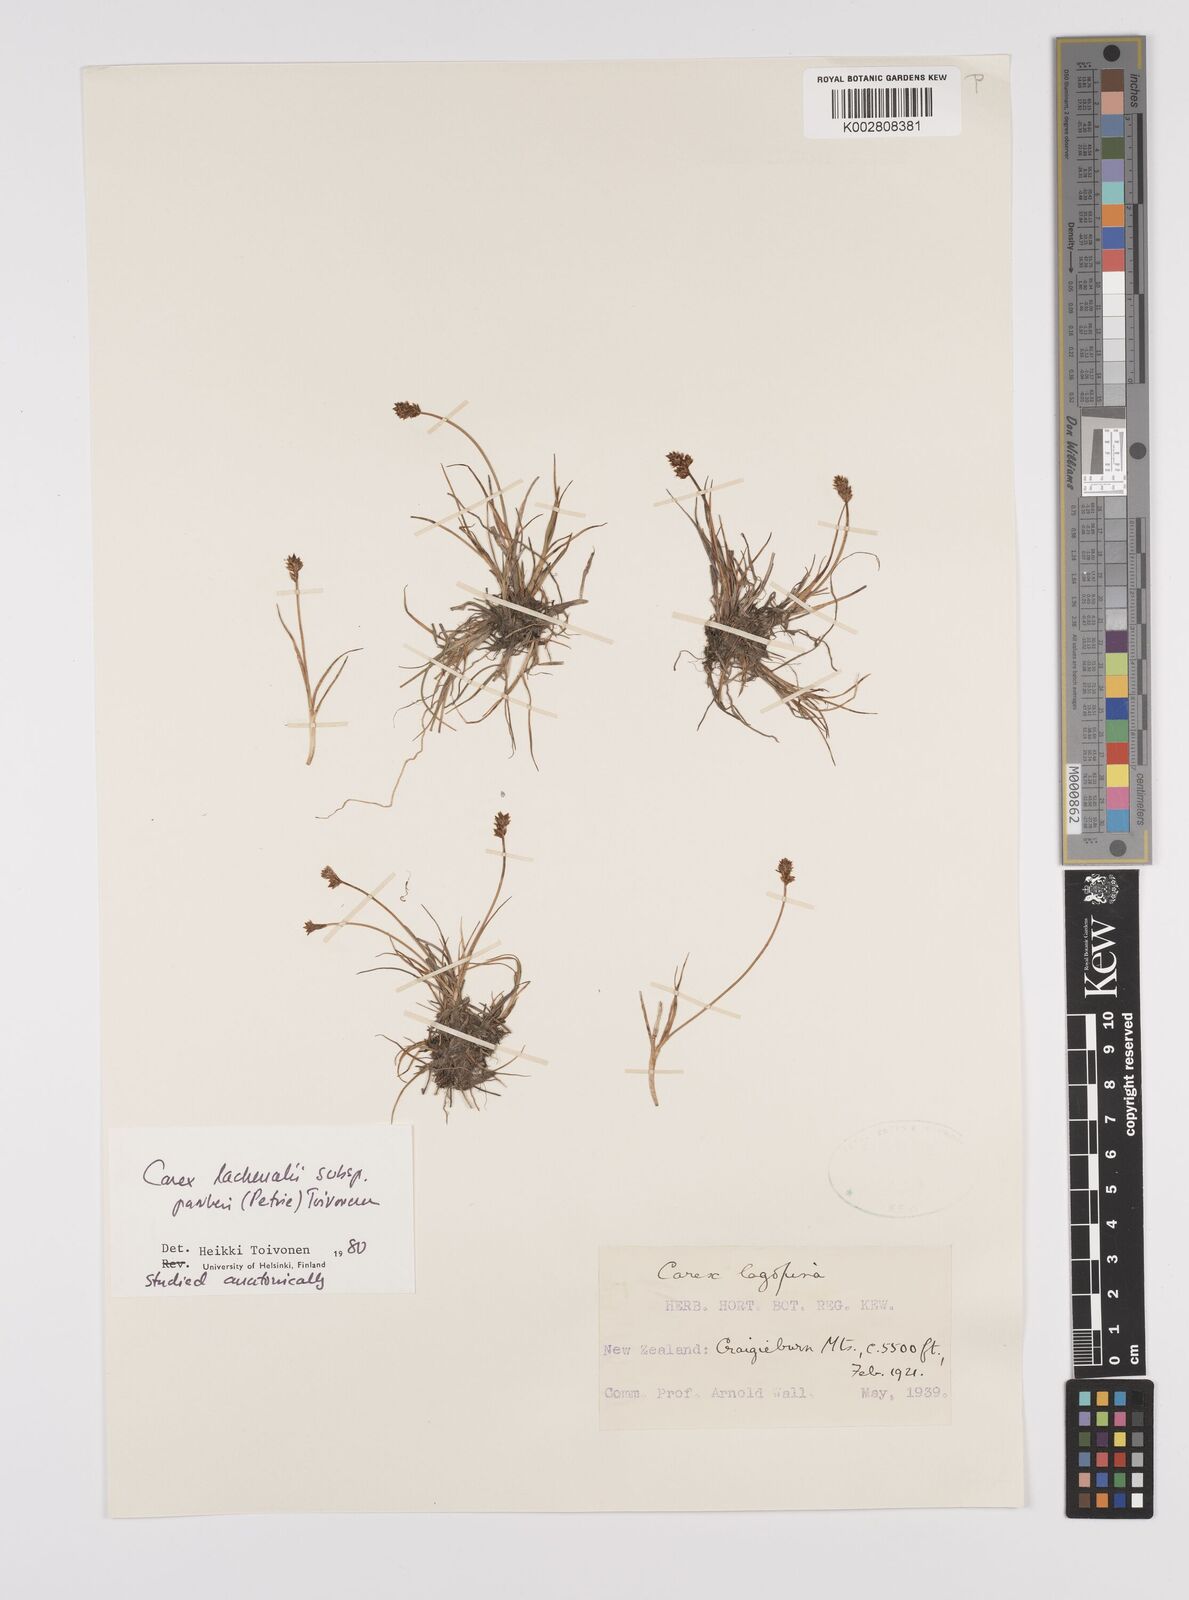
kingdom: Plantae
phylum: Tracheophyta
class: Liliopsida
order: Poales
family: Cyperaceae
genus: Carex
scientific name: Carex lachenalii
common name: Hare's-foot sedge
